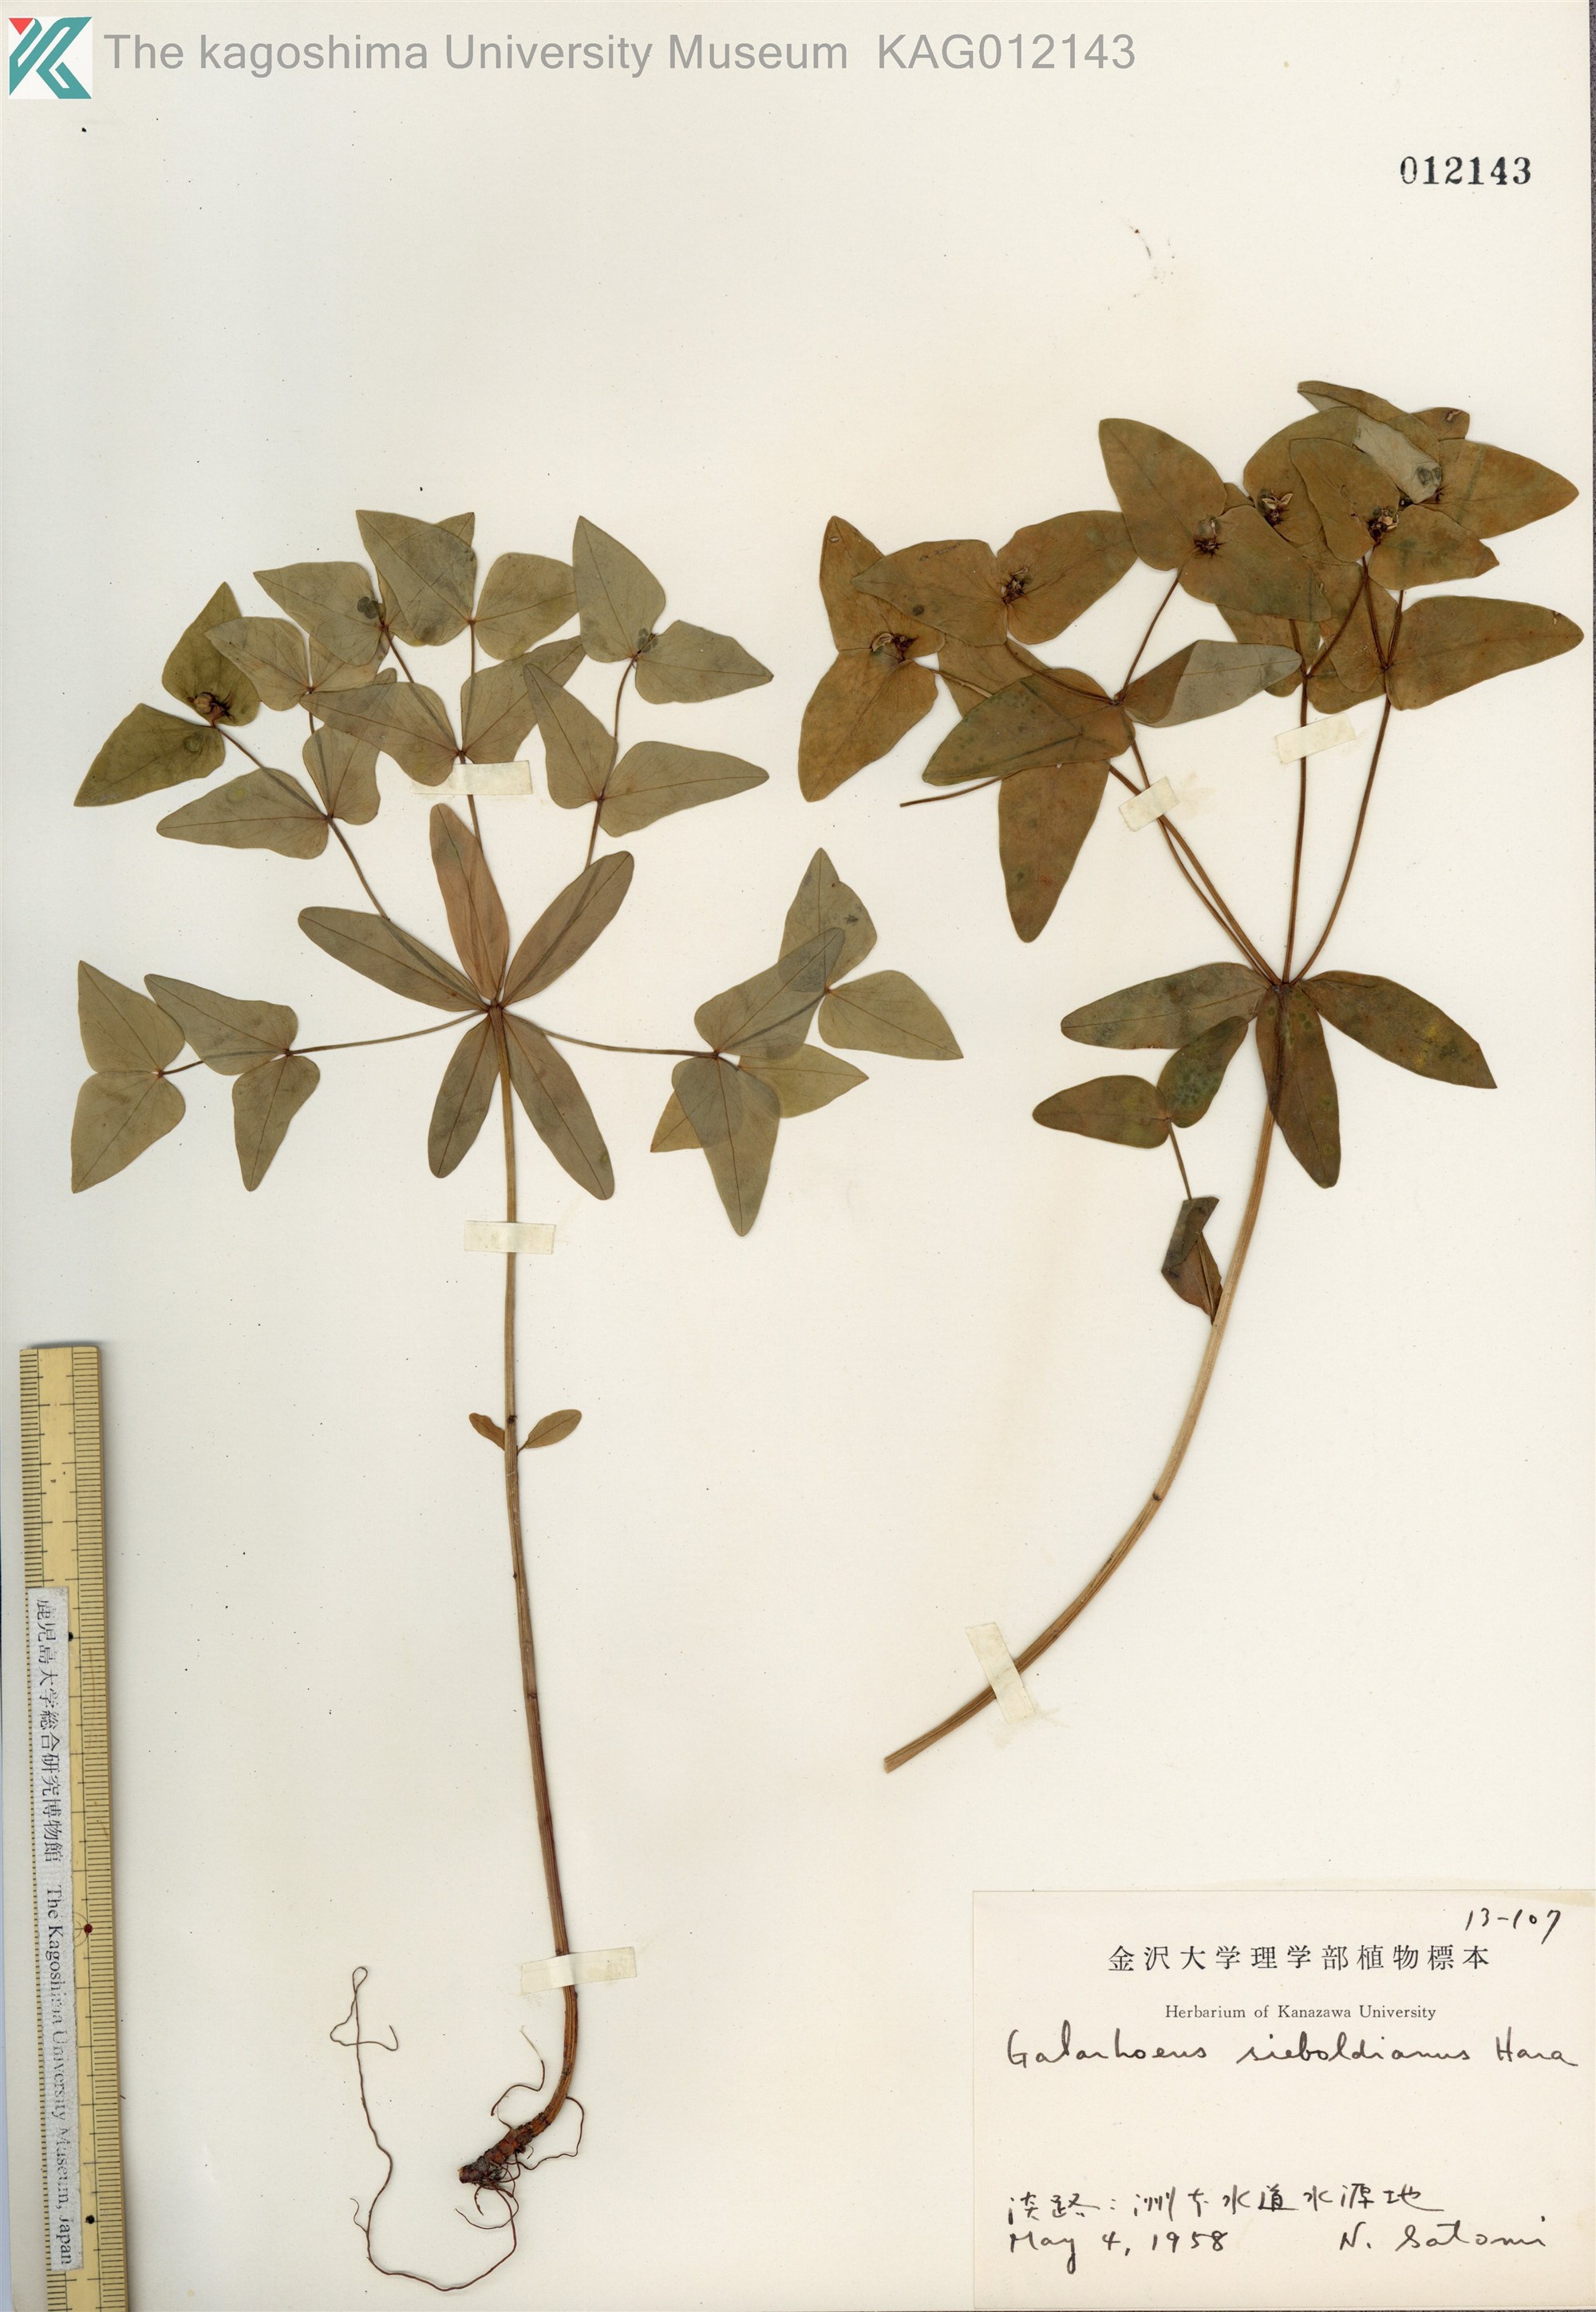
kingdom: Plantae
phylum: Tracheophyta
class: Magnoliopsida
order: Malpighiales
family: Euphorbiaceae
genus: Euphorbia
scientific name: Euphorbia sieboldiana
